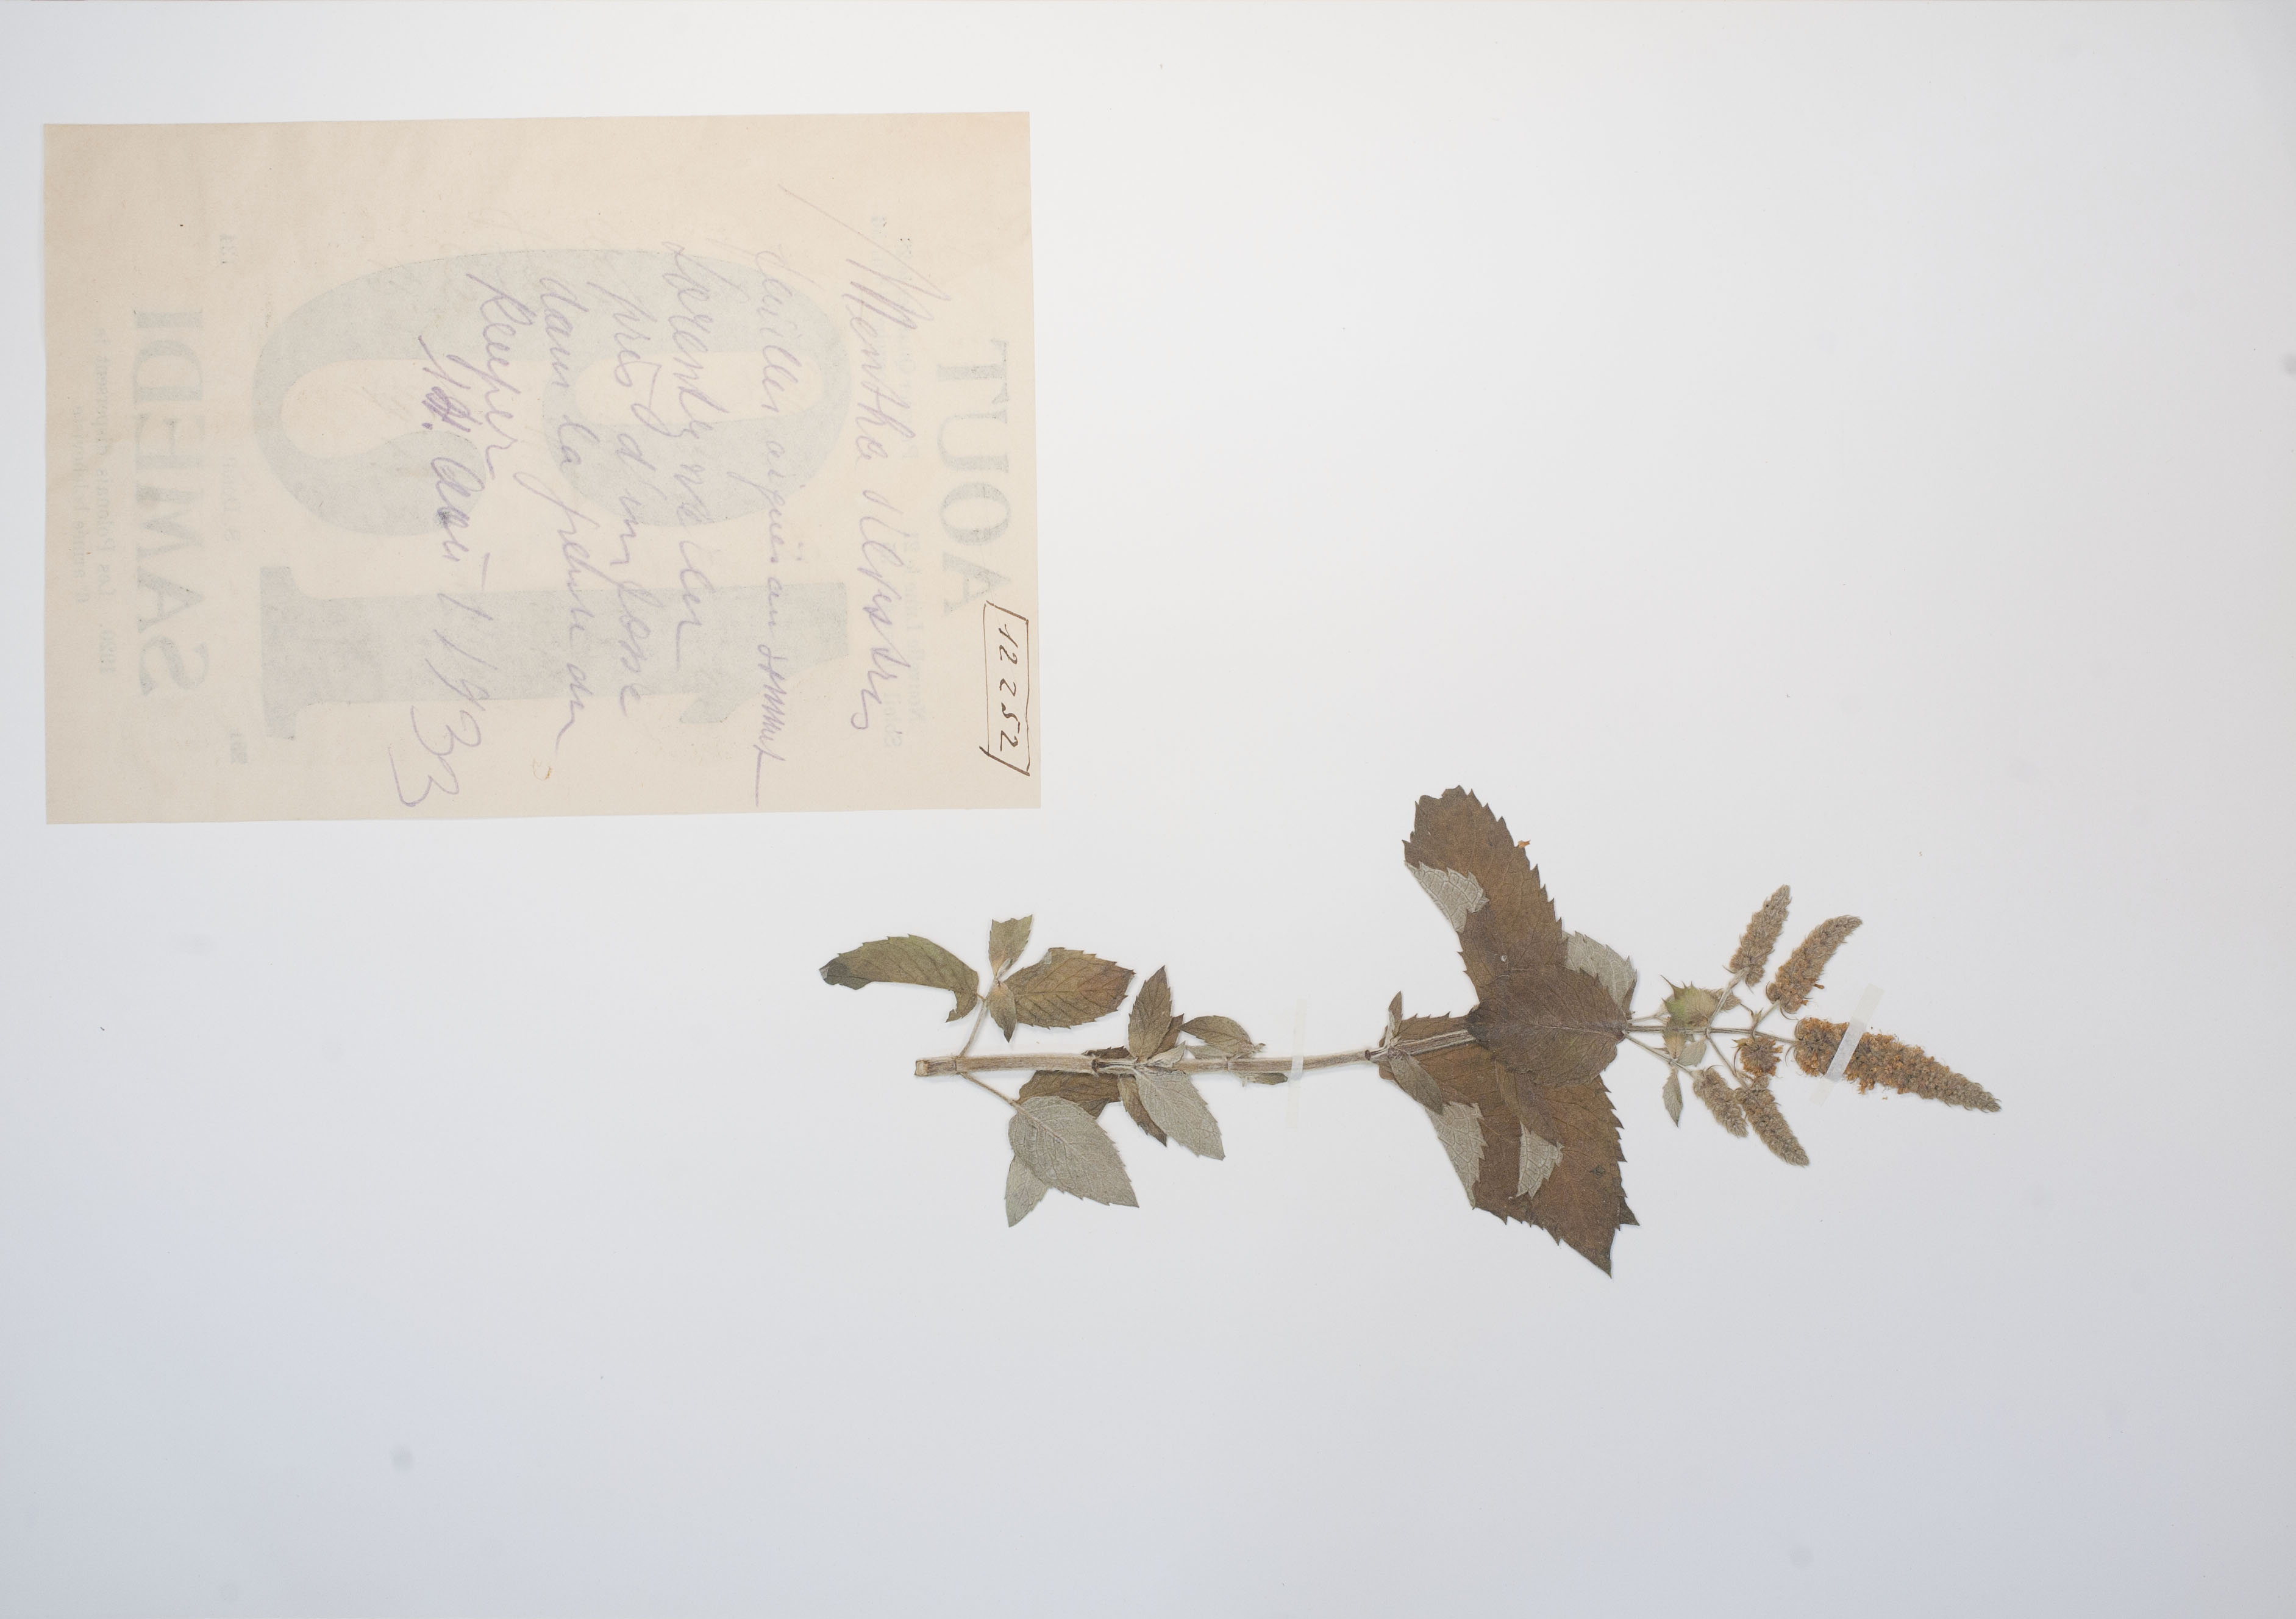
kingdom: Plantae
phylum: Tracheophyta
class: Magnoliopsida
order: Lamiales
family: Lamiaceae
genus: Mentha
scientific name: Mentha longifolia
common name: Horse mint
